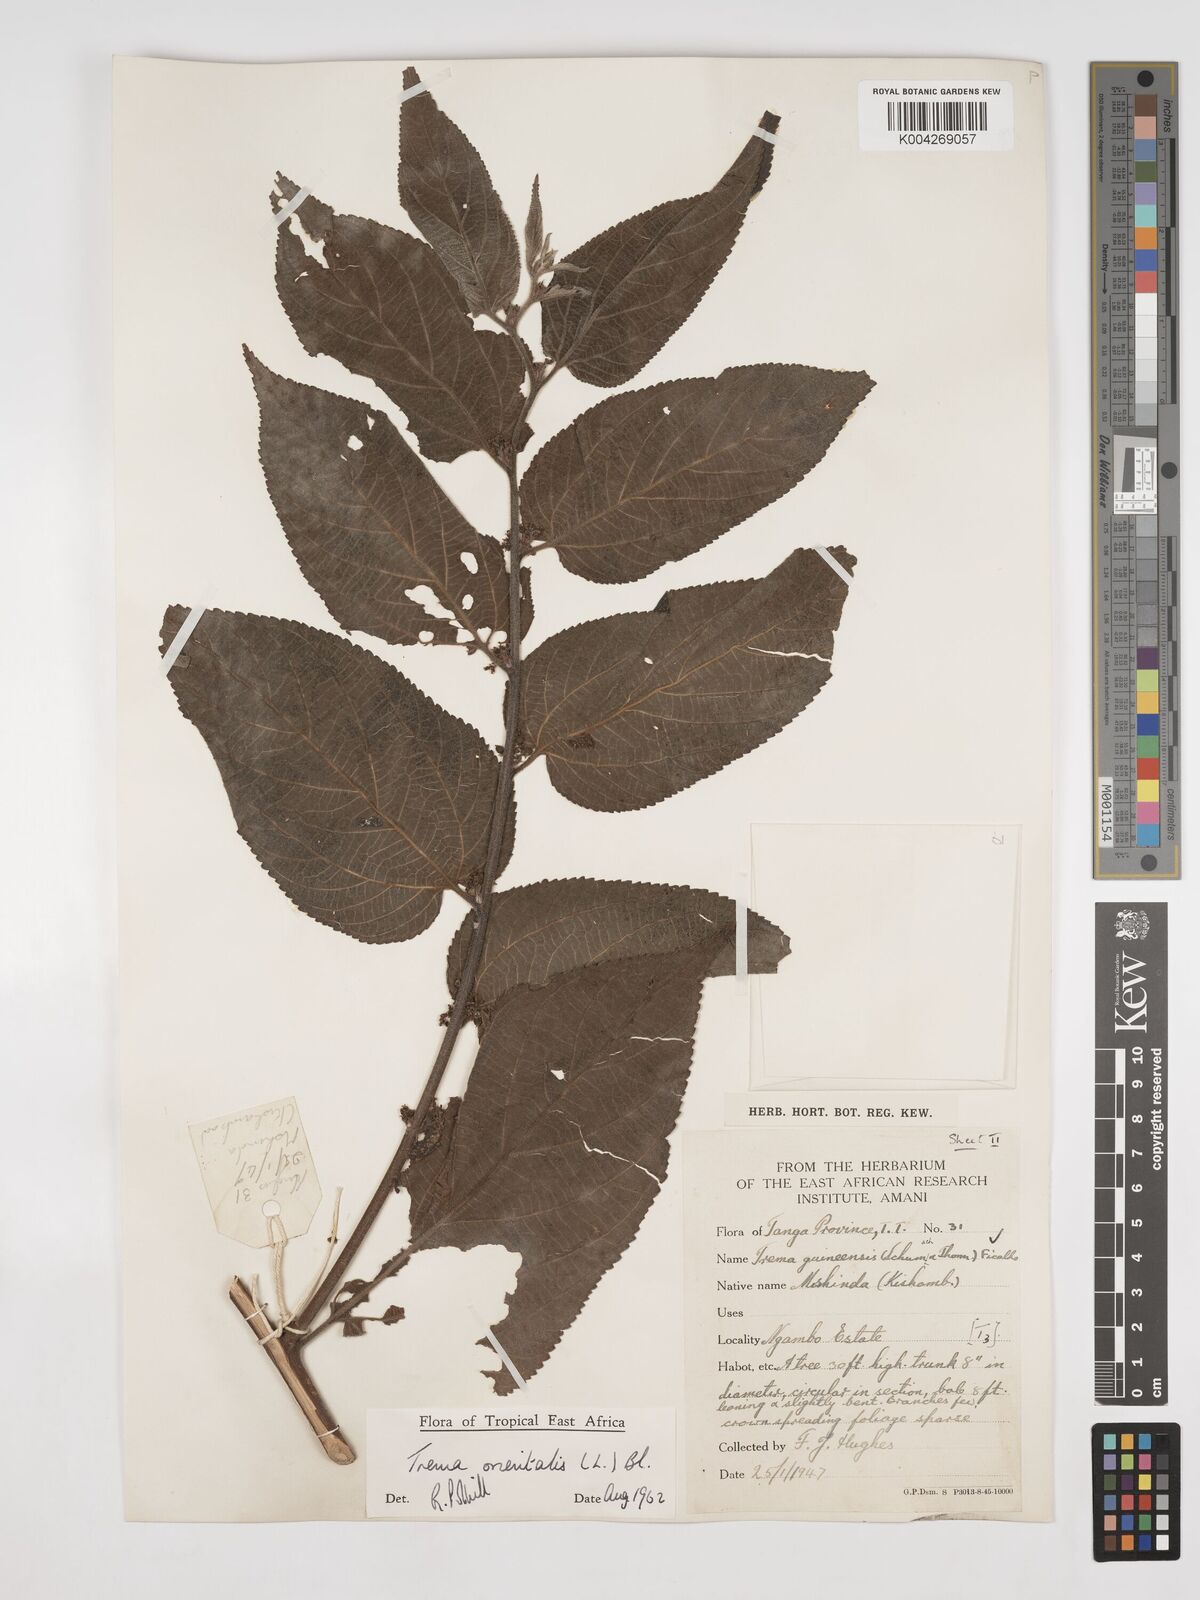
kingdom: Plantae
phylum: Tracheophyta
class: Magnoliopsida
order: Rosales
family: Cannabaceae
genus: Trema
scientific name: Trema orientale
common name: Indian charcoal tree
